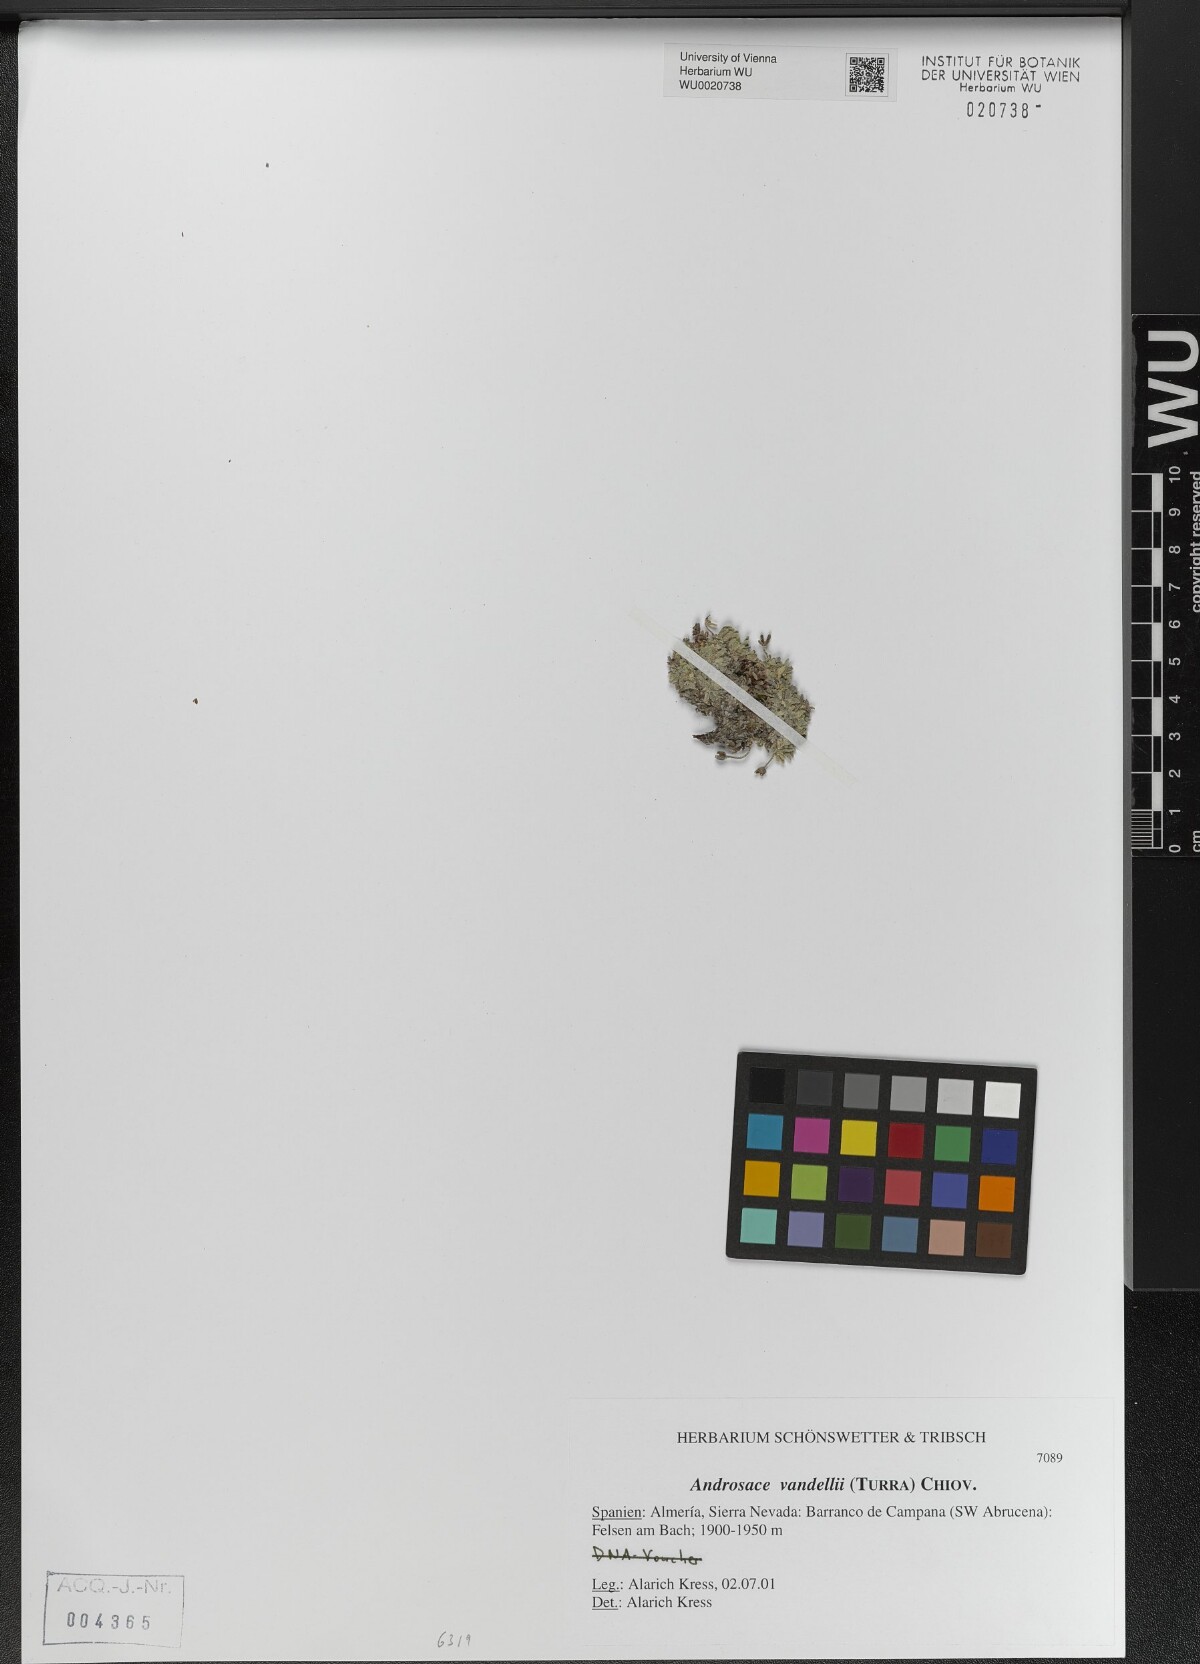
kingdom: Plantae
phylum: Tracheophyta
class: Magnoliopsida
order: Ericales
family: Primulaceae
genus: Androsace
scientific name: Androsace alpina
